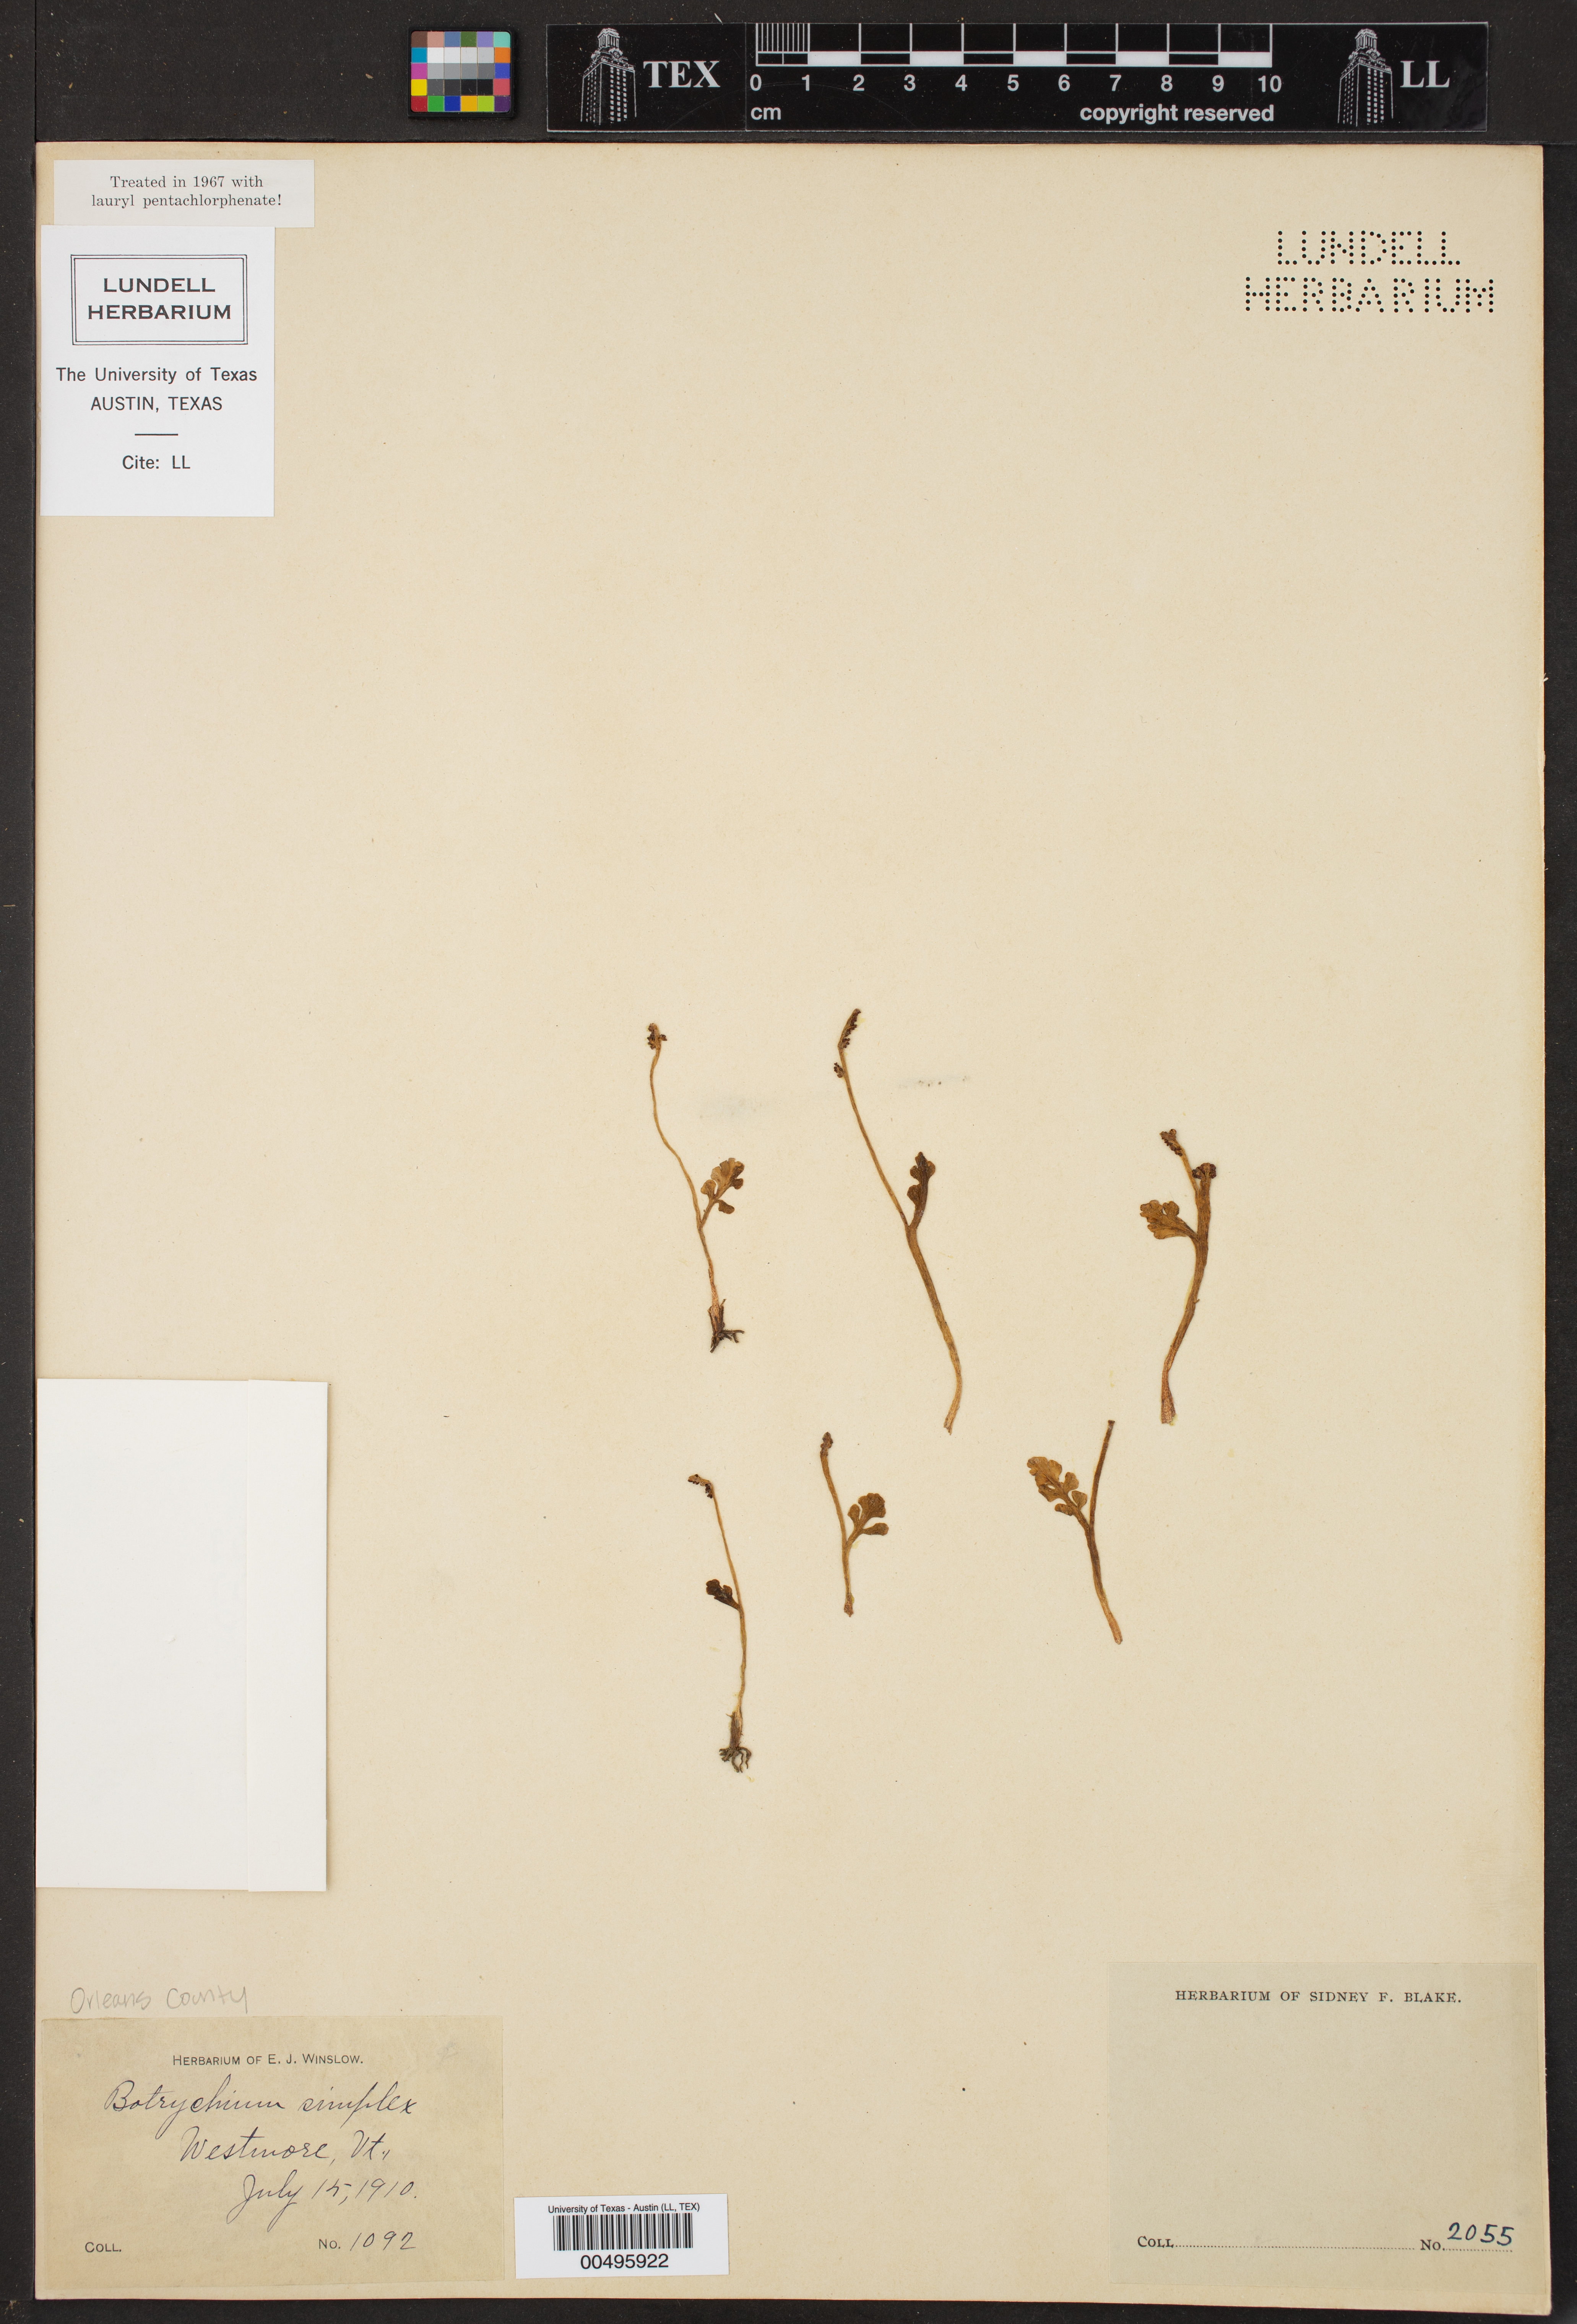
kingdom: Plantae
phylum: Tracheophyta
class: Polypodiopsida
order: Ophioglossales
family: Ophioglossaceae
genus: Botrychium
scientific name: Botrychium simplex
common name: Least moonwort
